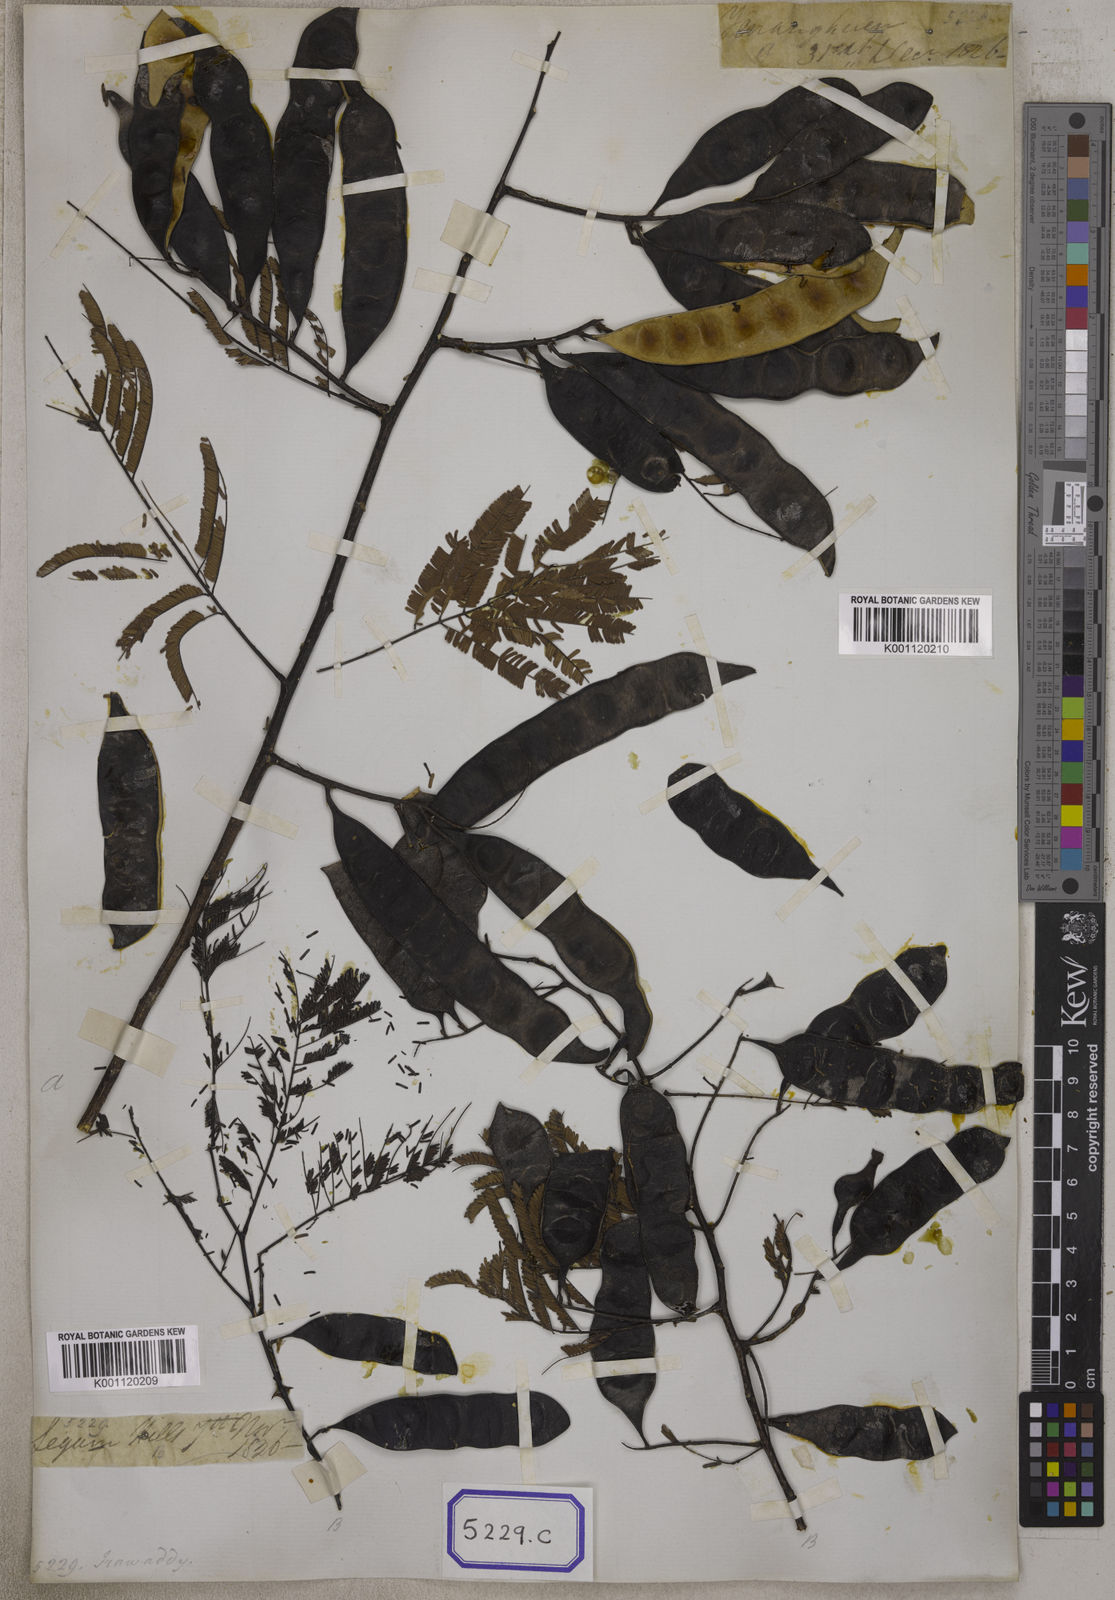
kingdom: Plantae
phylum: Tracheophyta
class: Magnoliopsida
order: Fabales
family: Fabaceae
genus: Senegalia
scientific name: Senegalia catechu
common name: Black cutch
